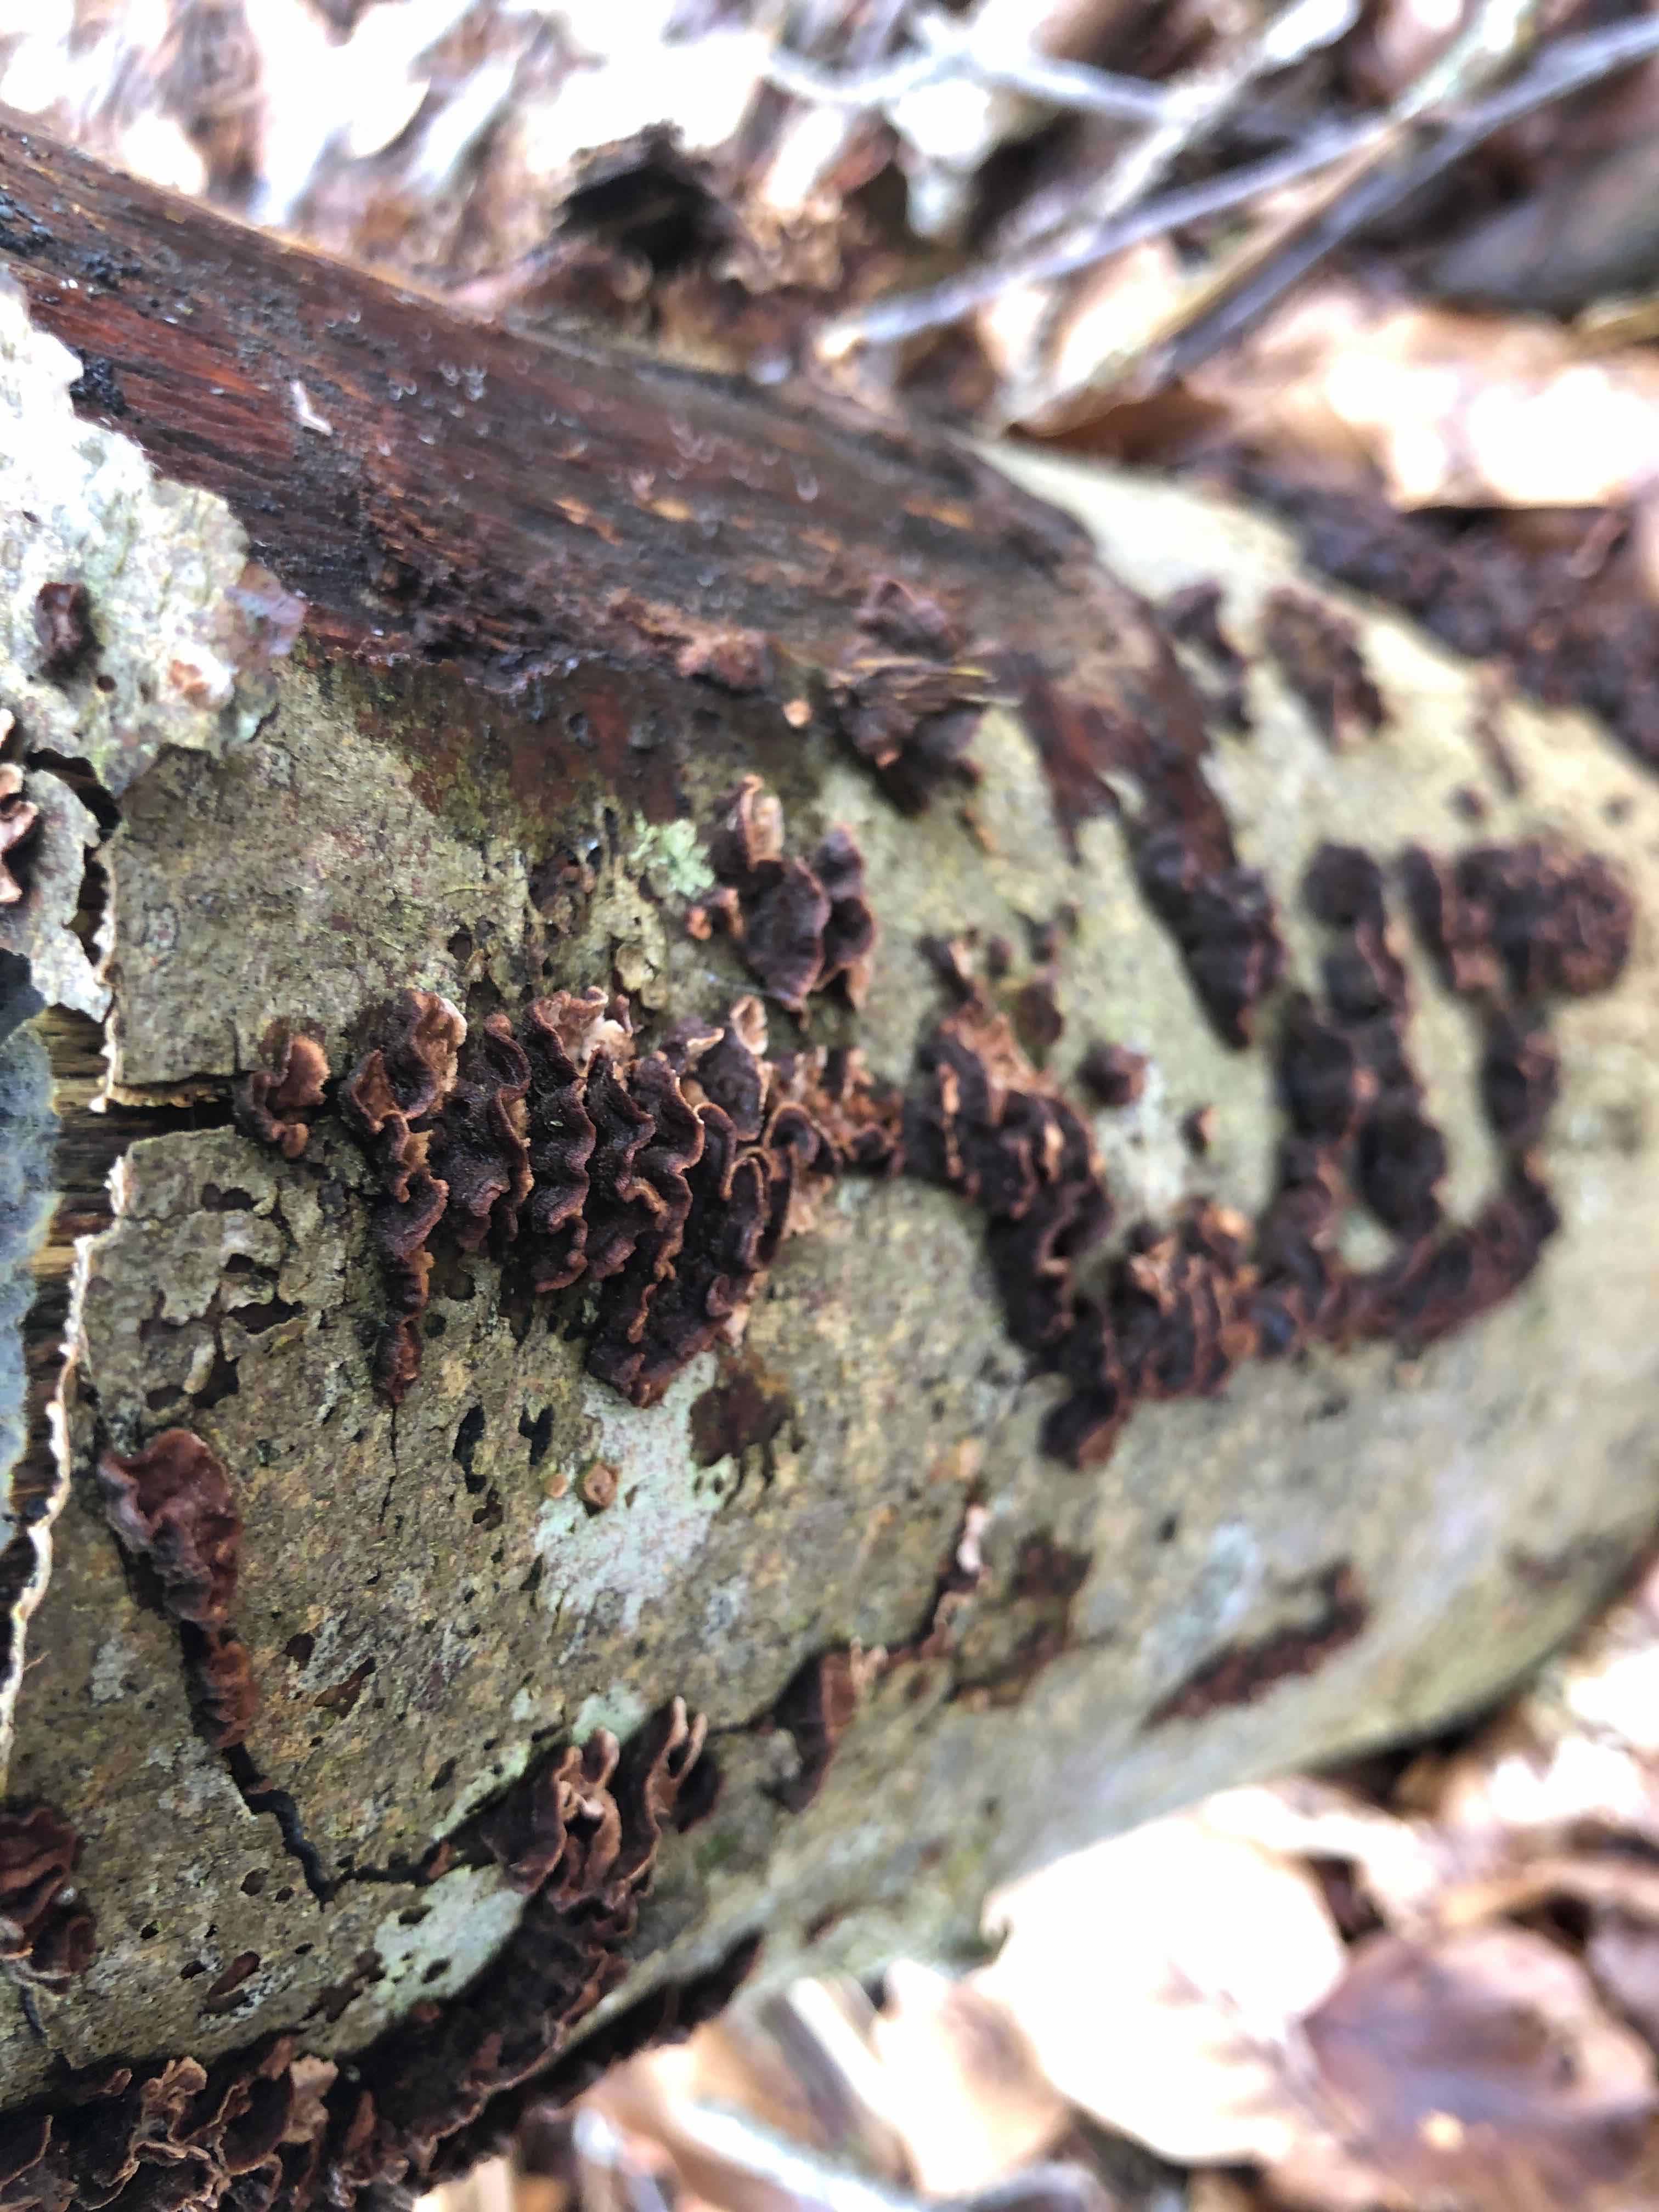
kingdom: Fungi
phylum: Basidiomycota
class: Agaricomycetes
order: Russulales
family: Hericiaceae
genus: Laxitextum
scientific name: Laxitextum bicolor
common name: tvefarvet filtskind
